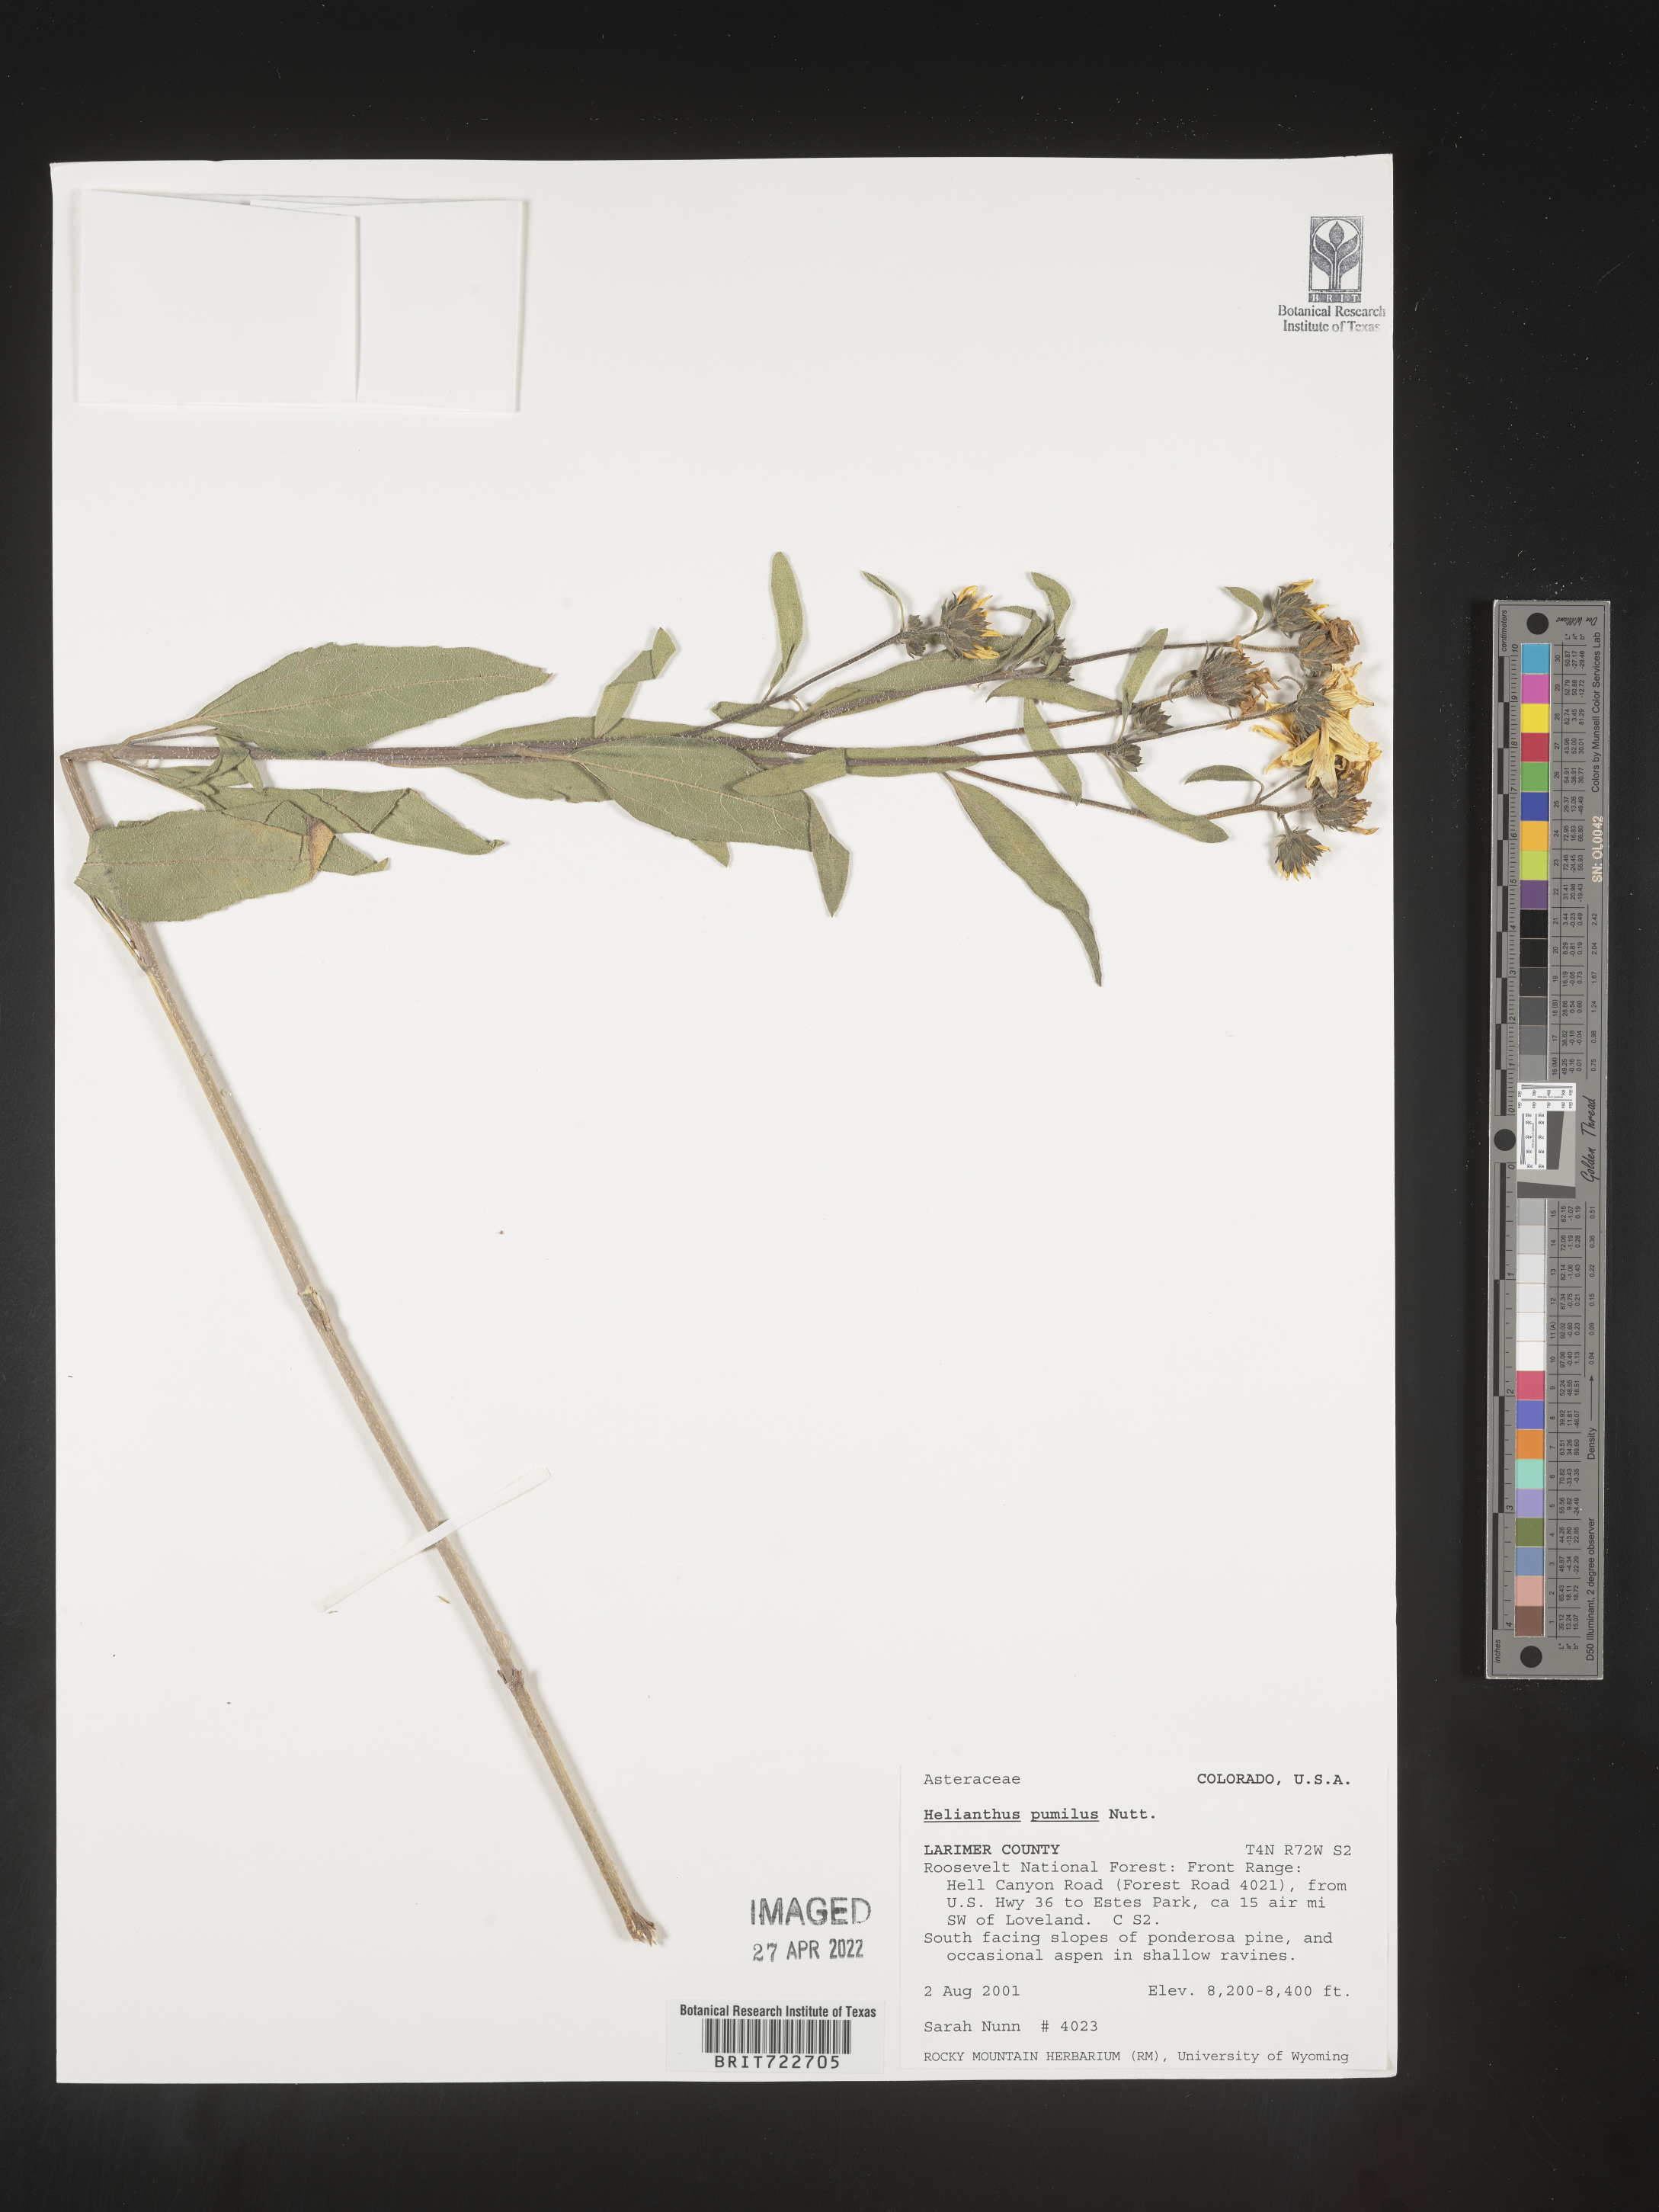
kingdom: Plantae
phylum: Tracheophyta
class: Magnoliopsida
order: Asterales
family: Asteraceae
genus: Helianthus
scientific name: Helianthus pumilus
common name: Dwarf sunflower
